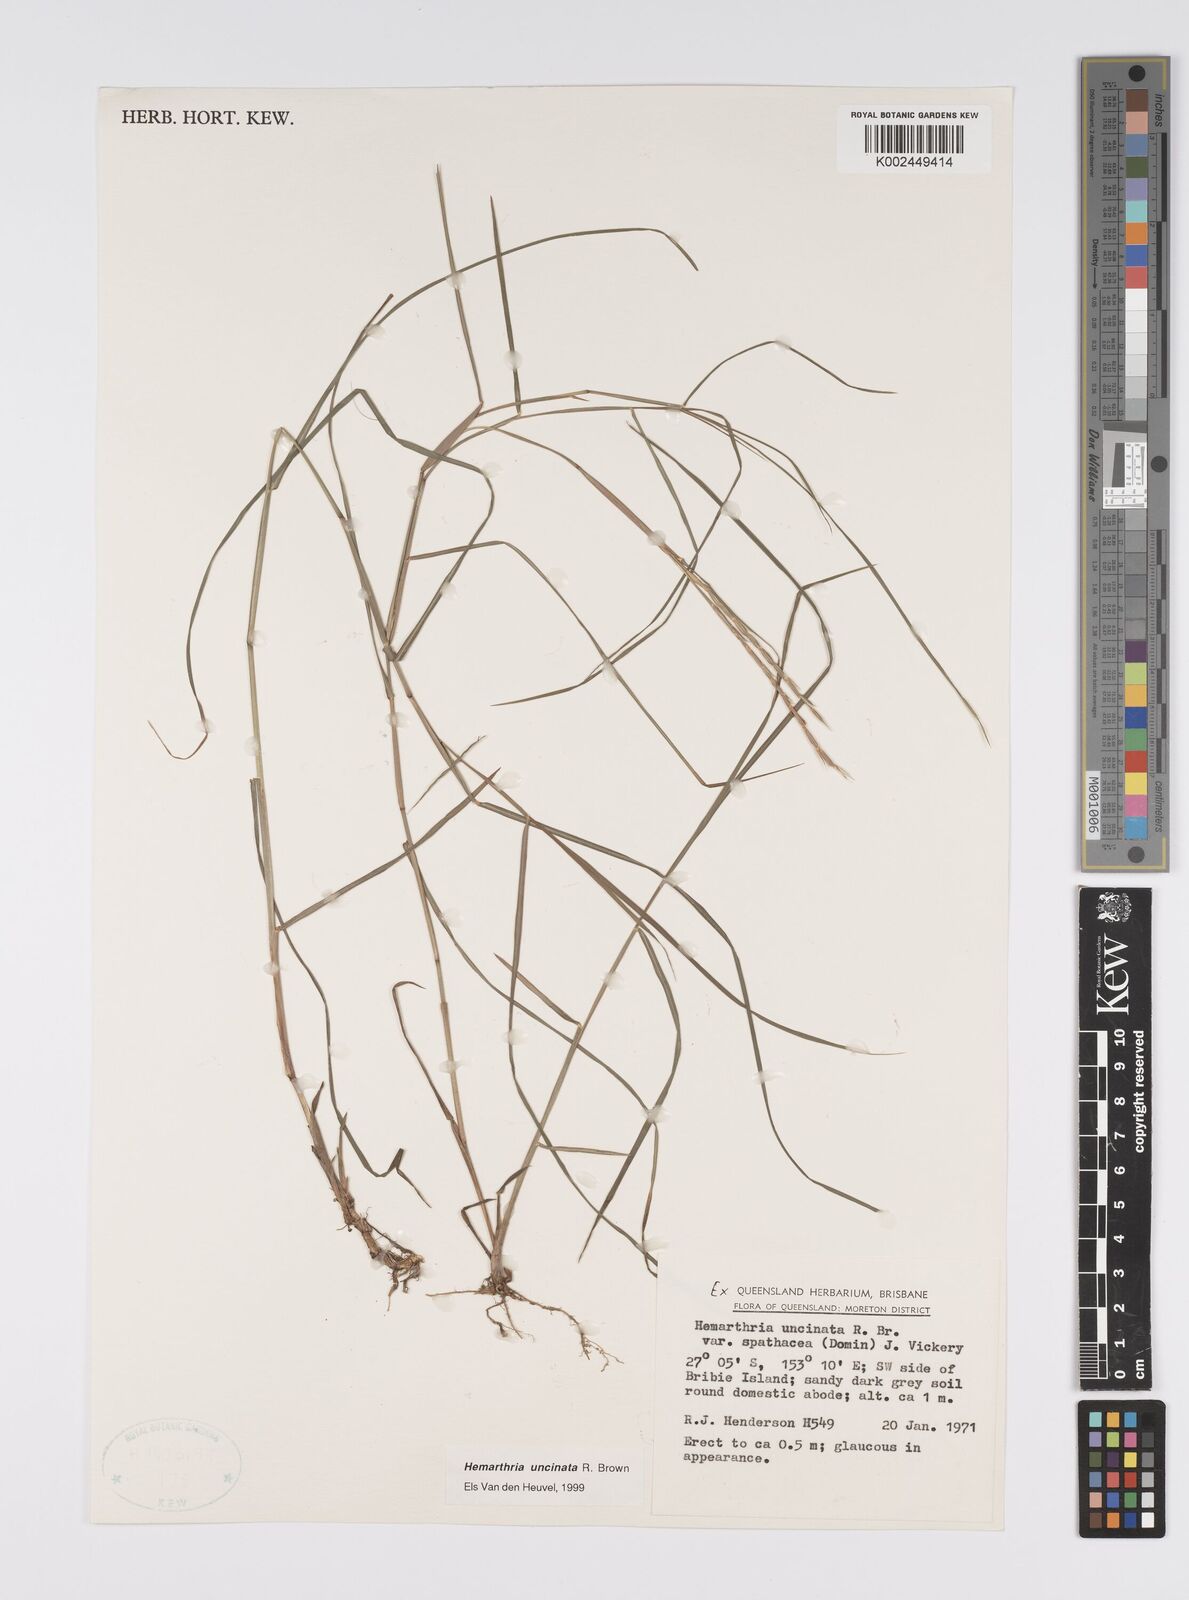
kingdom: Plantae
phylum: Tracheophyta
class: Liliopsida
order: Poales
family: Poaceae
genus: Hemarthria
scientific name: Hemarthria uncinata
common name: Matgrass
